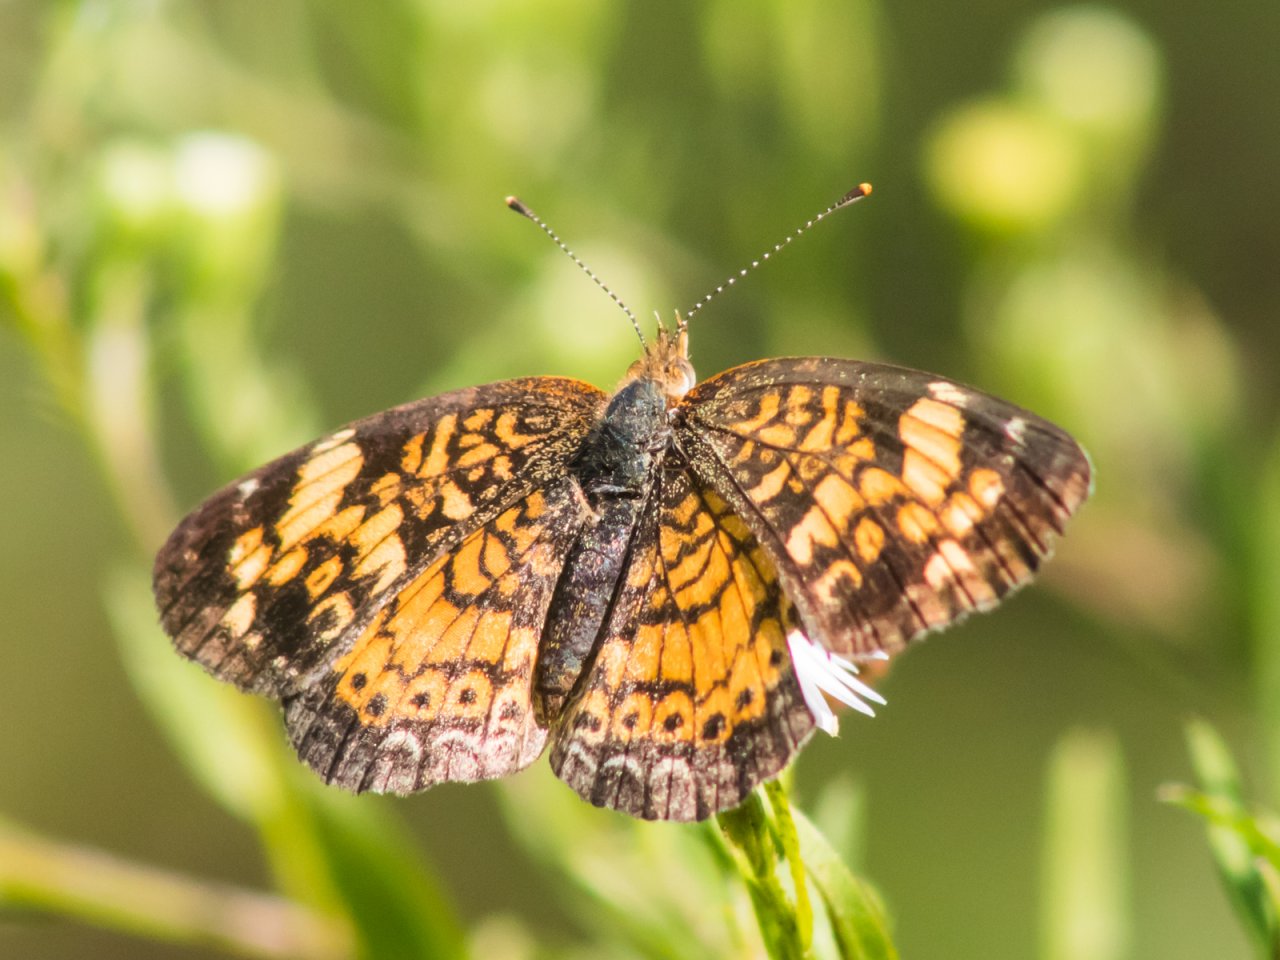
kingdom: Animalia
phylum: Arthropoda
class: Insecta
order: Lepidoptera
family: Nymphalidae
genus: Phyciodes
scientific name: Phyciodes tharos
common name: Pearl Crescent
